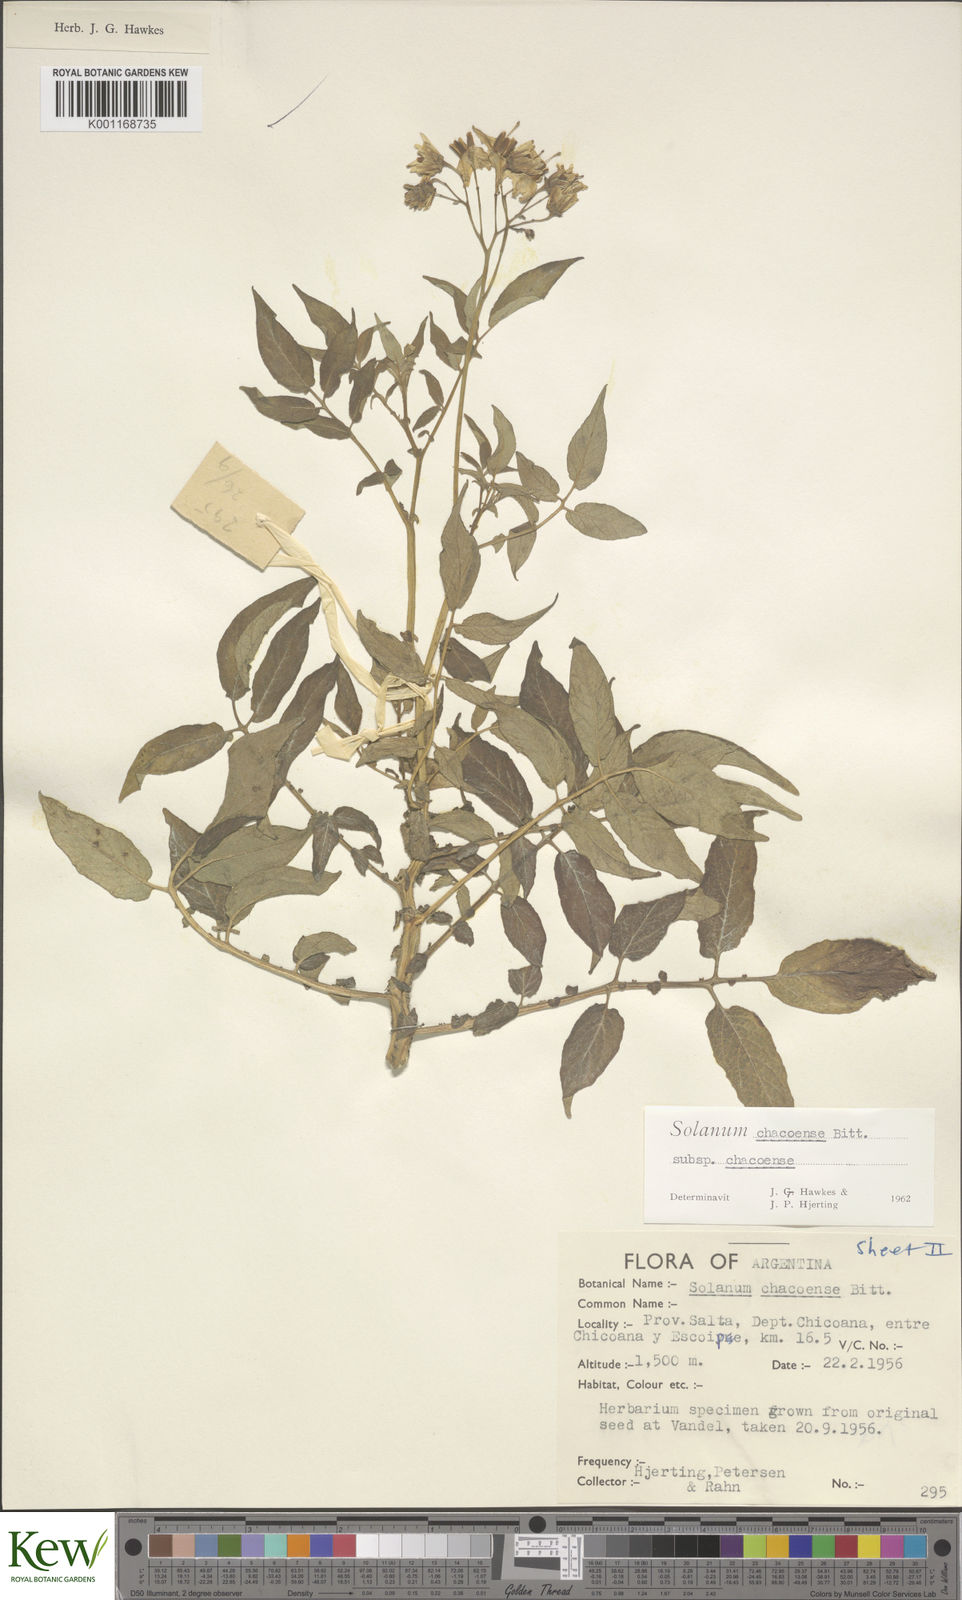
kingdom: Plantae
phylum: Tracheophyta
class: Magnoliopsida
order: Solanales
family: Solanaceae
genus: Solanum
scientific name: Solanum chacoense
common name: Chaco potato
